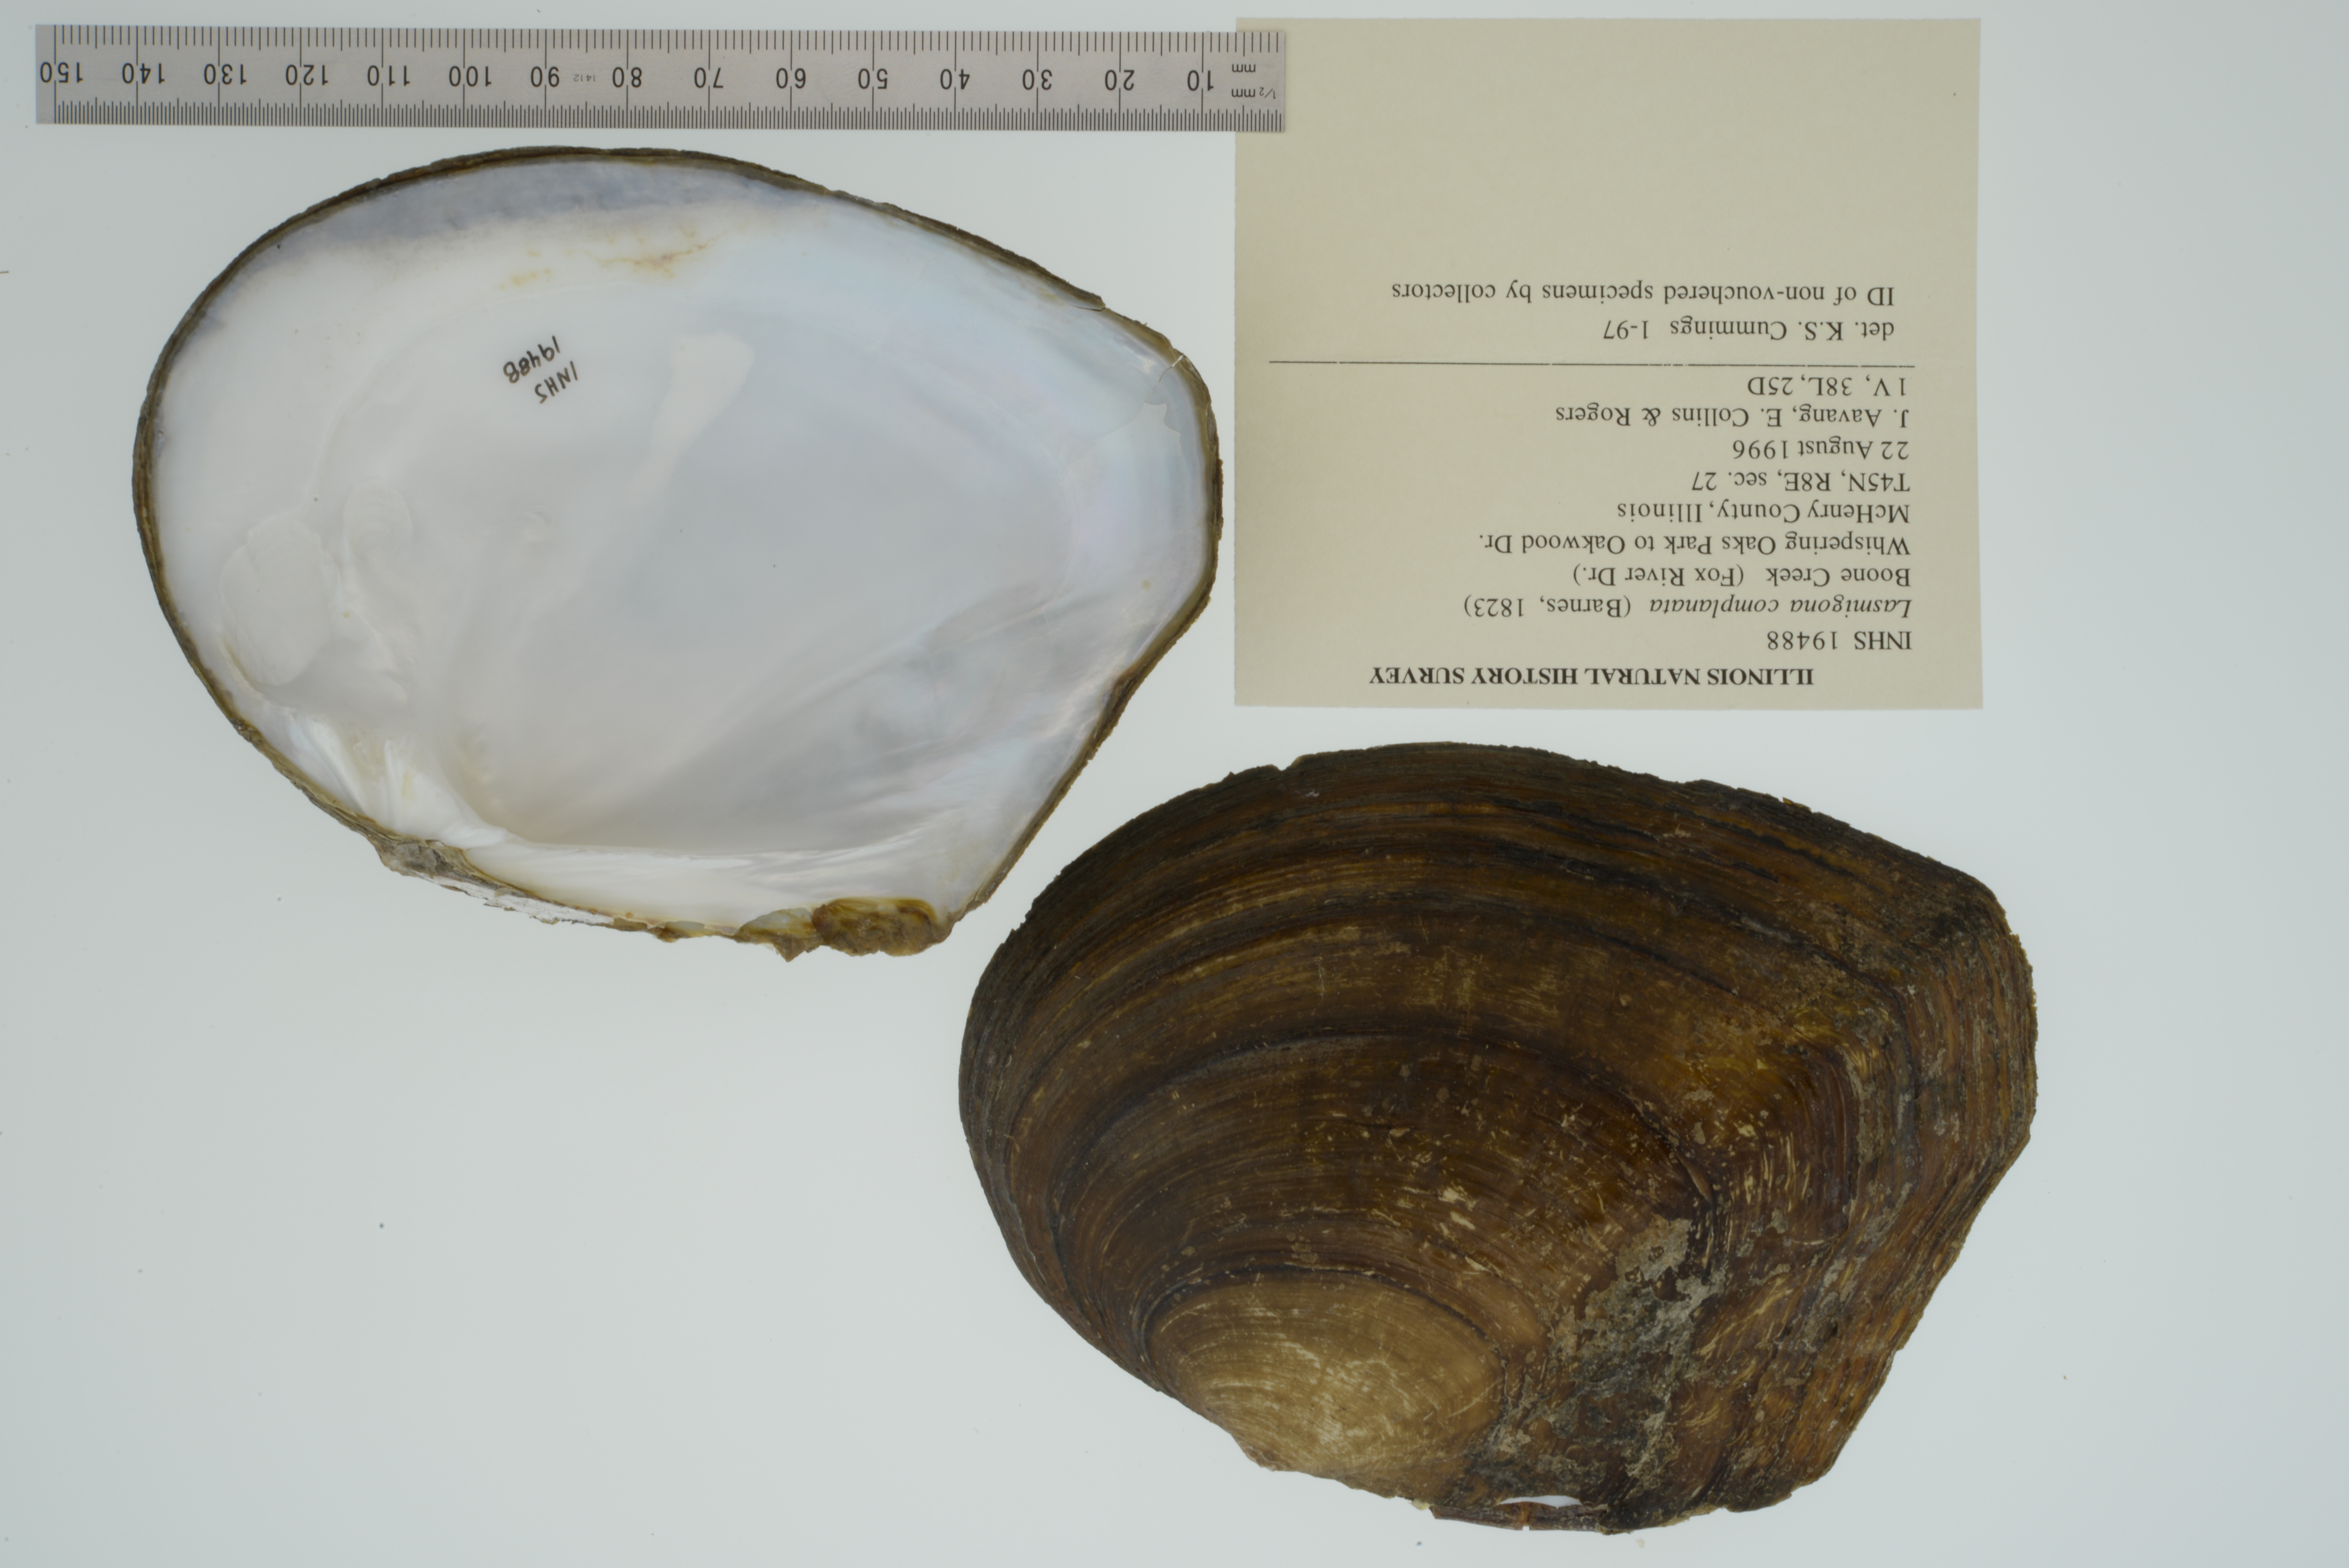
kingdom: Animalia
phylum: Mollusca
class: Bivalvia
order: Unionida
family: Unionidae
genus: Lasmigona
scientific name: Lasmigona complanata
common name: White heelsplitter
